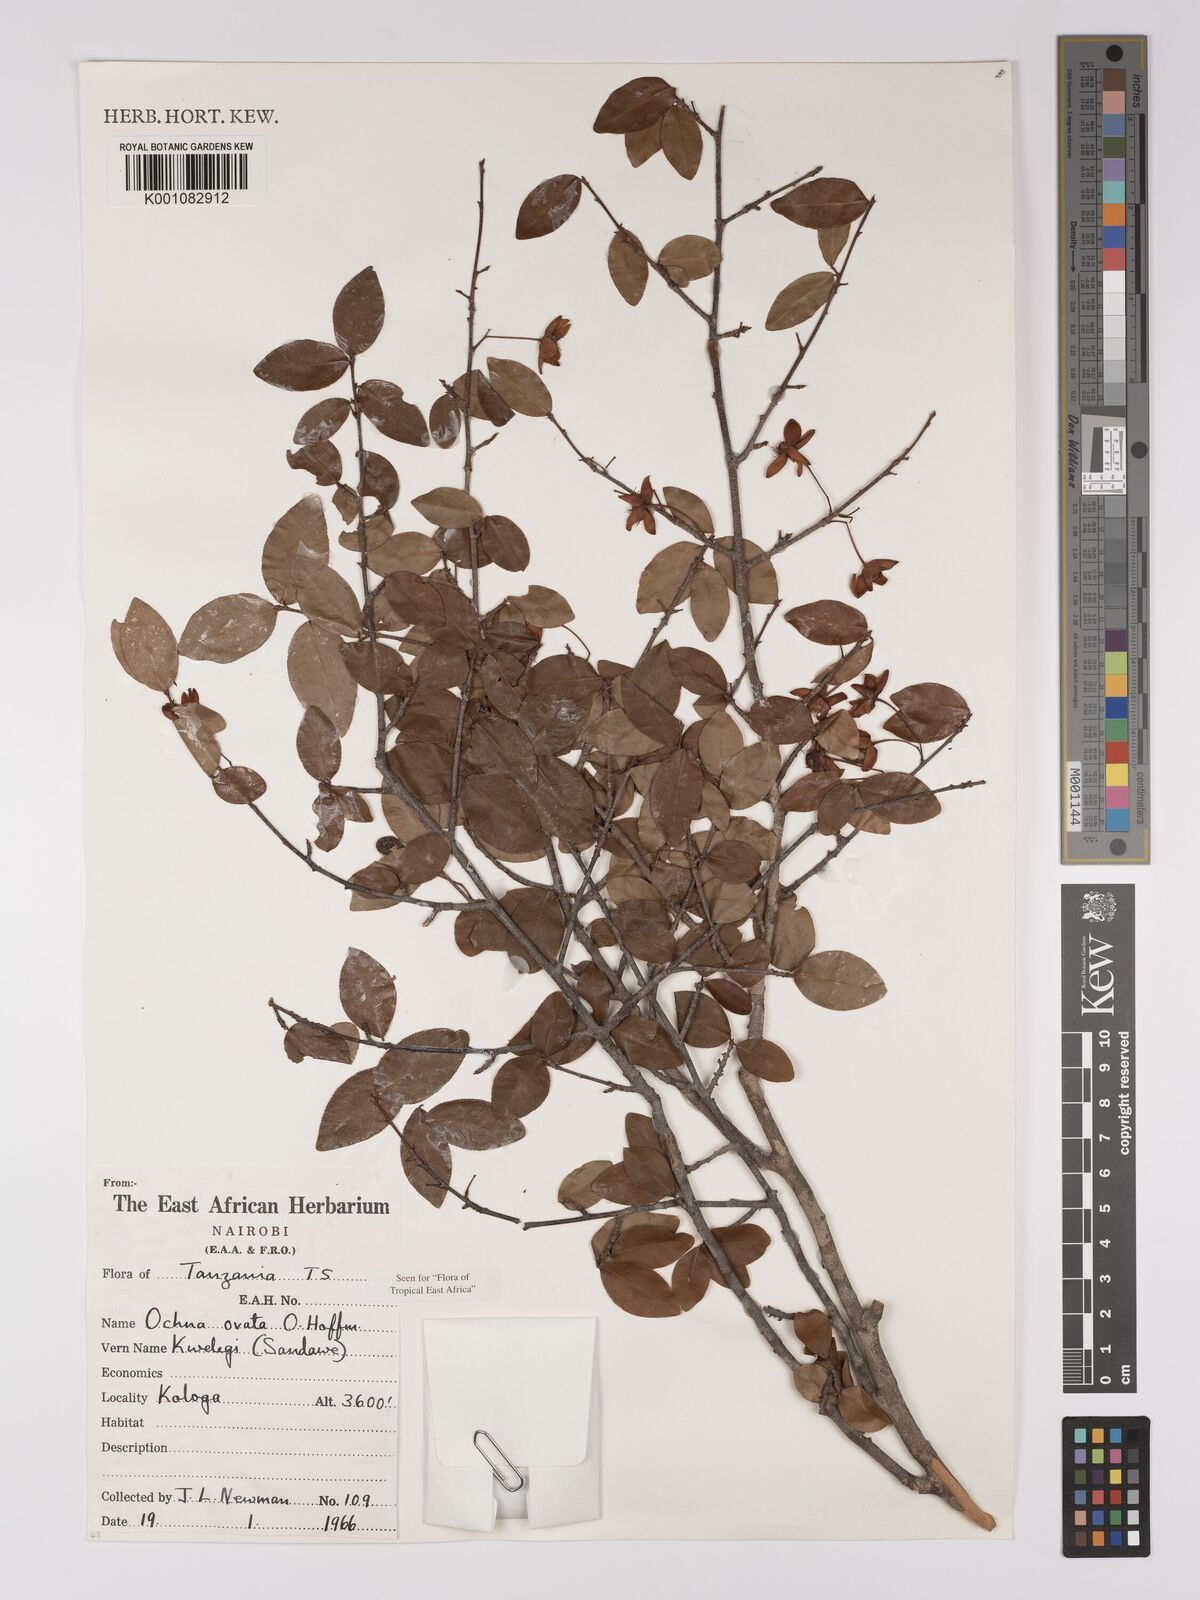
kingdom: Plantae
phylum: Tracheophyta
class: Magnoliopsida
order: Malpighiales
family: Ochnaceae
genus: Ochna
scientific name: Ochna ovata
